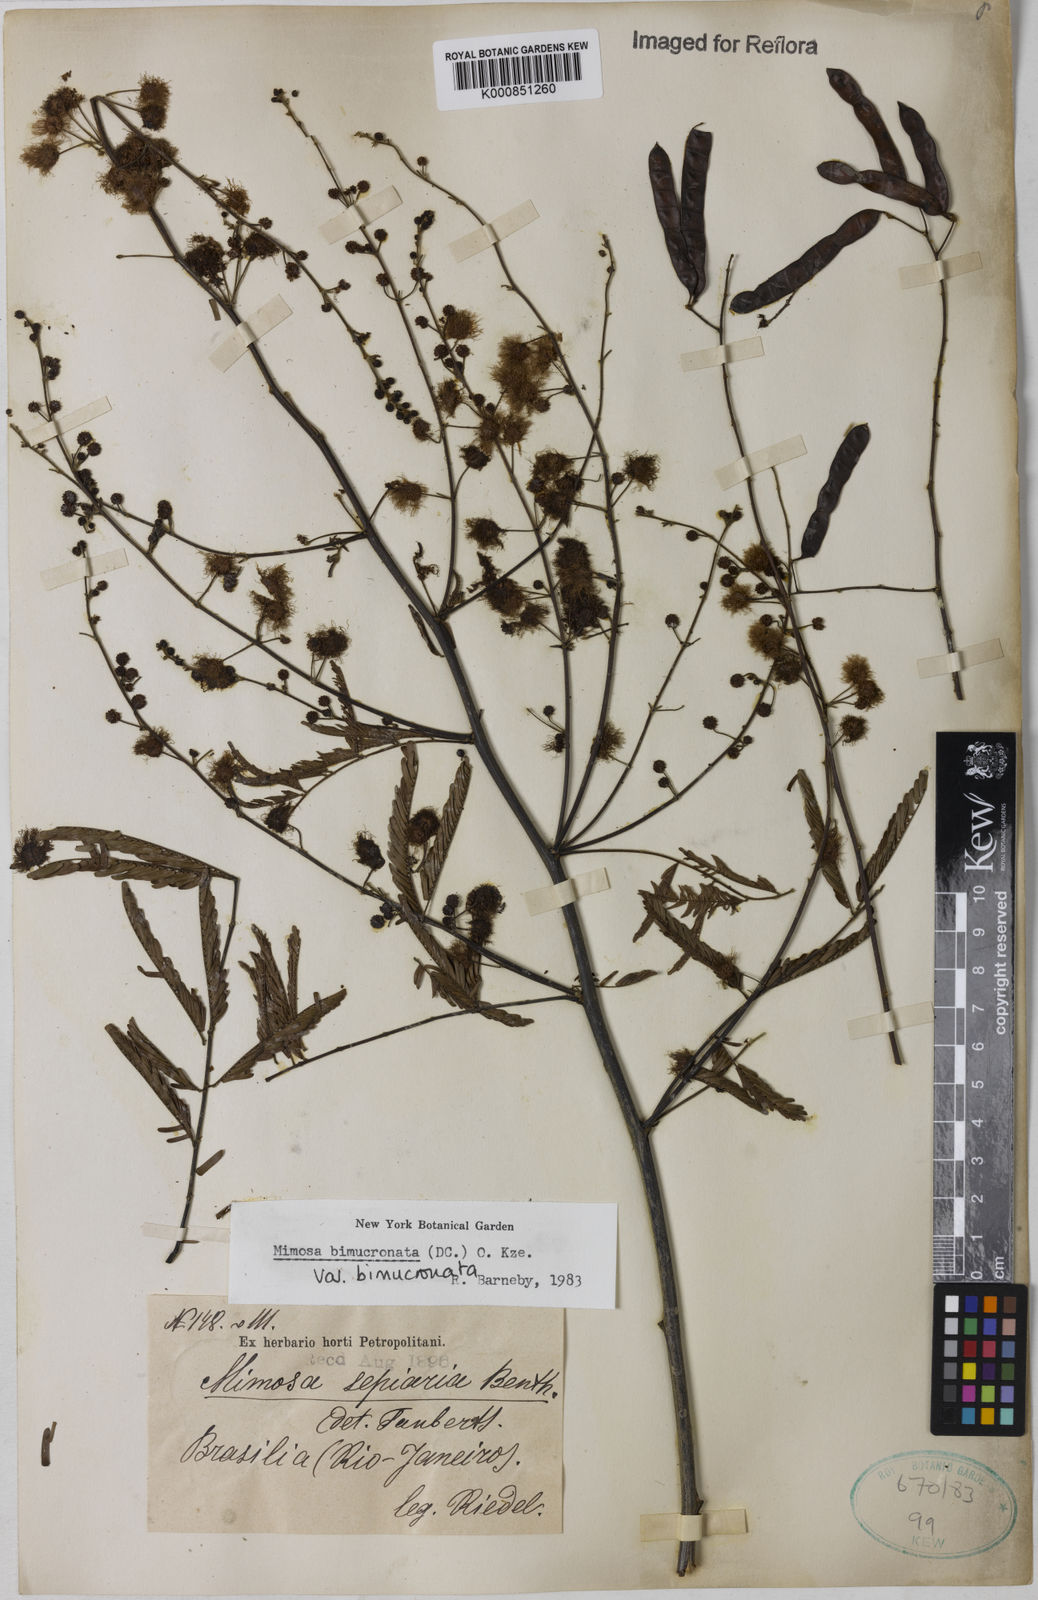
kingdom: Plantae
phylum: Tracheophyta
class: Magnoliopsida
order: Fabales
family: Fabaceae
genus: Mimosa
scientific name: Mimosa bimucronata
